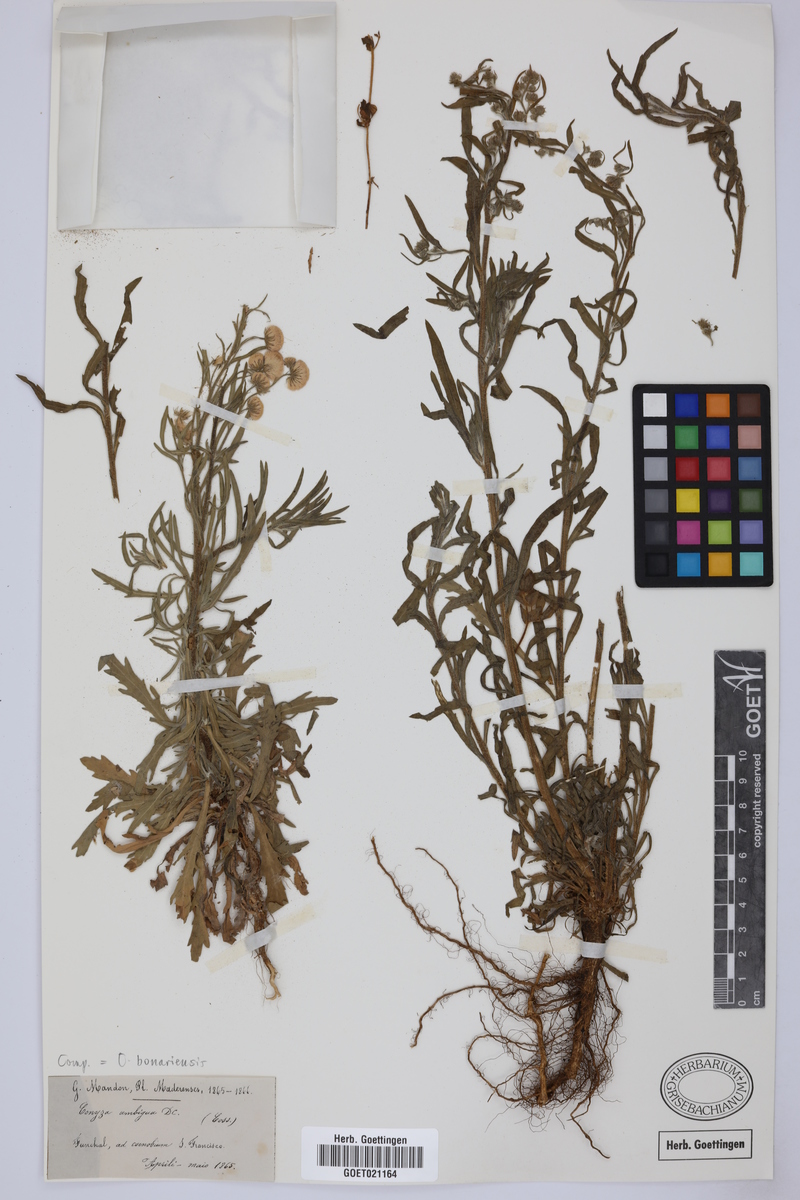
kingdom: Plantae
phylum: Tracheophyta
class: Magnoliopsida
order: Asterales
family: Asteraceae
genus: Erigeron
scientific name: Erigeron bonariensis
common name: Argentine fleabane
